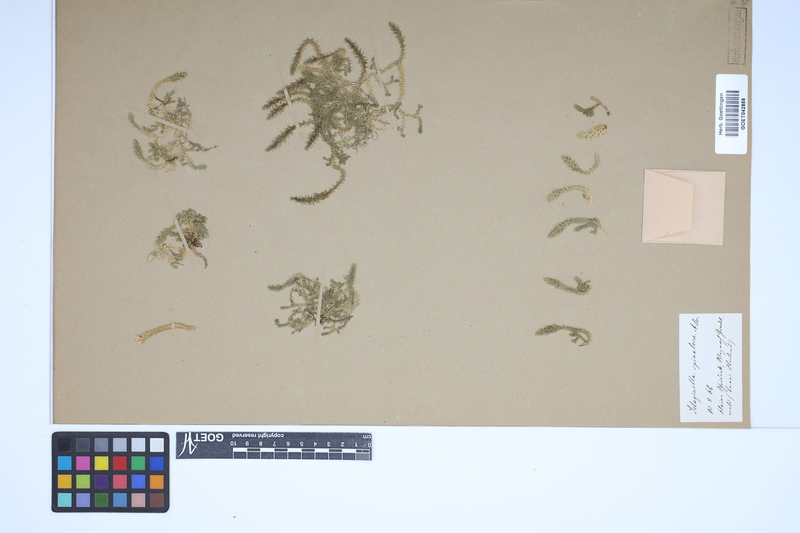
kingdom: Plantae
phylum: Tracheophyta
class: Lycopodiopsida
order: Selaginellales
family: Selaginellaceae
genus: Selaginella
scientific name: Selaginella selaginoides
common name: Prickly mountain-moss
